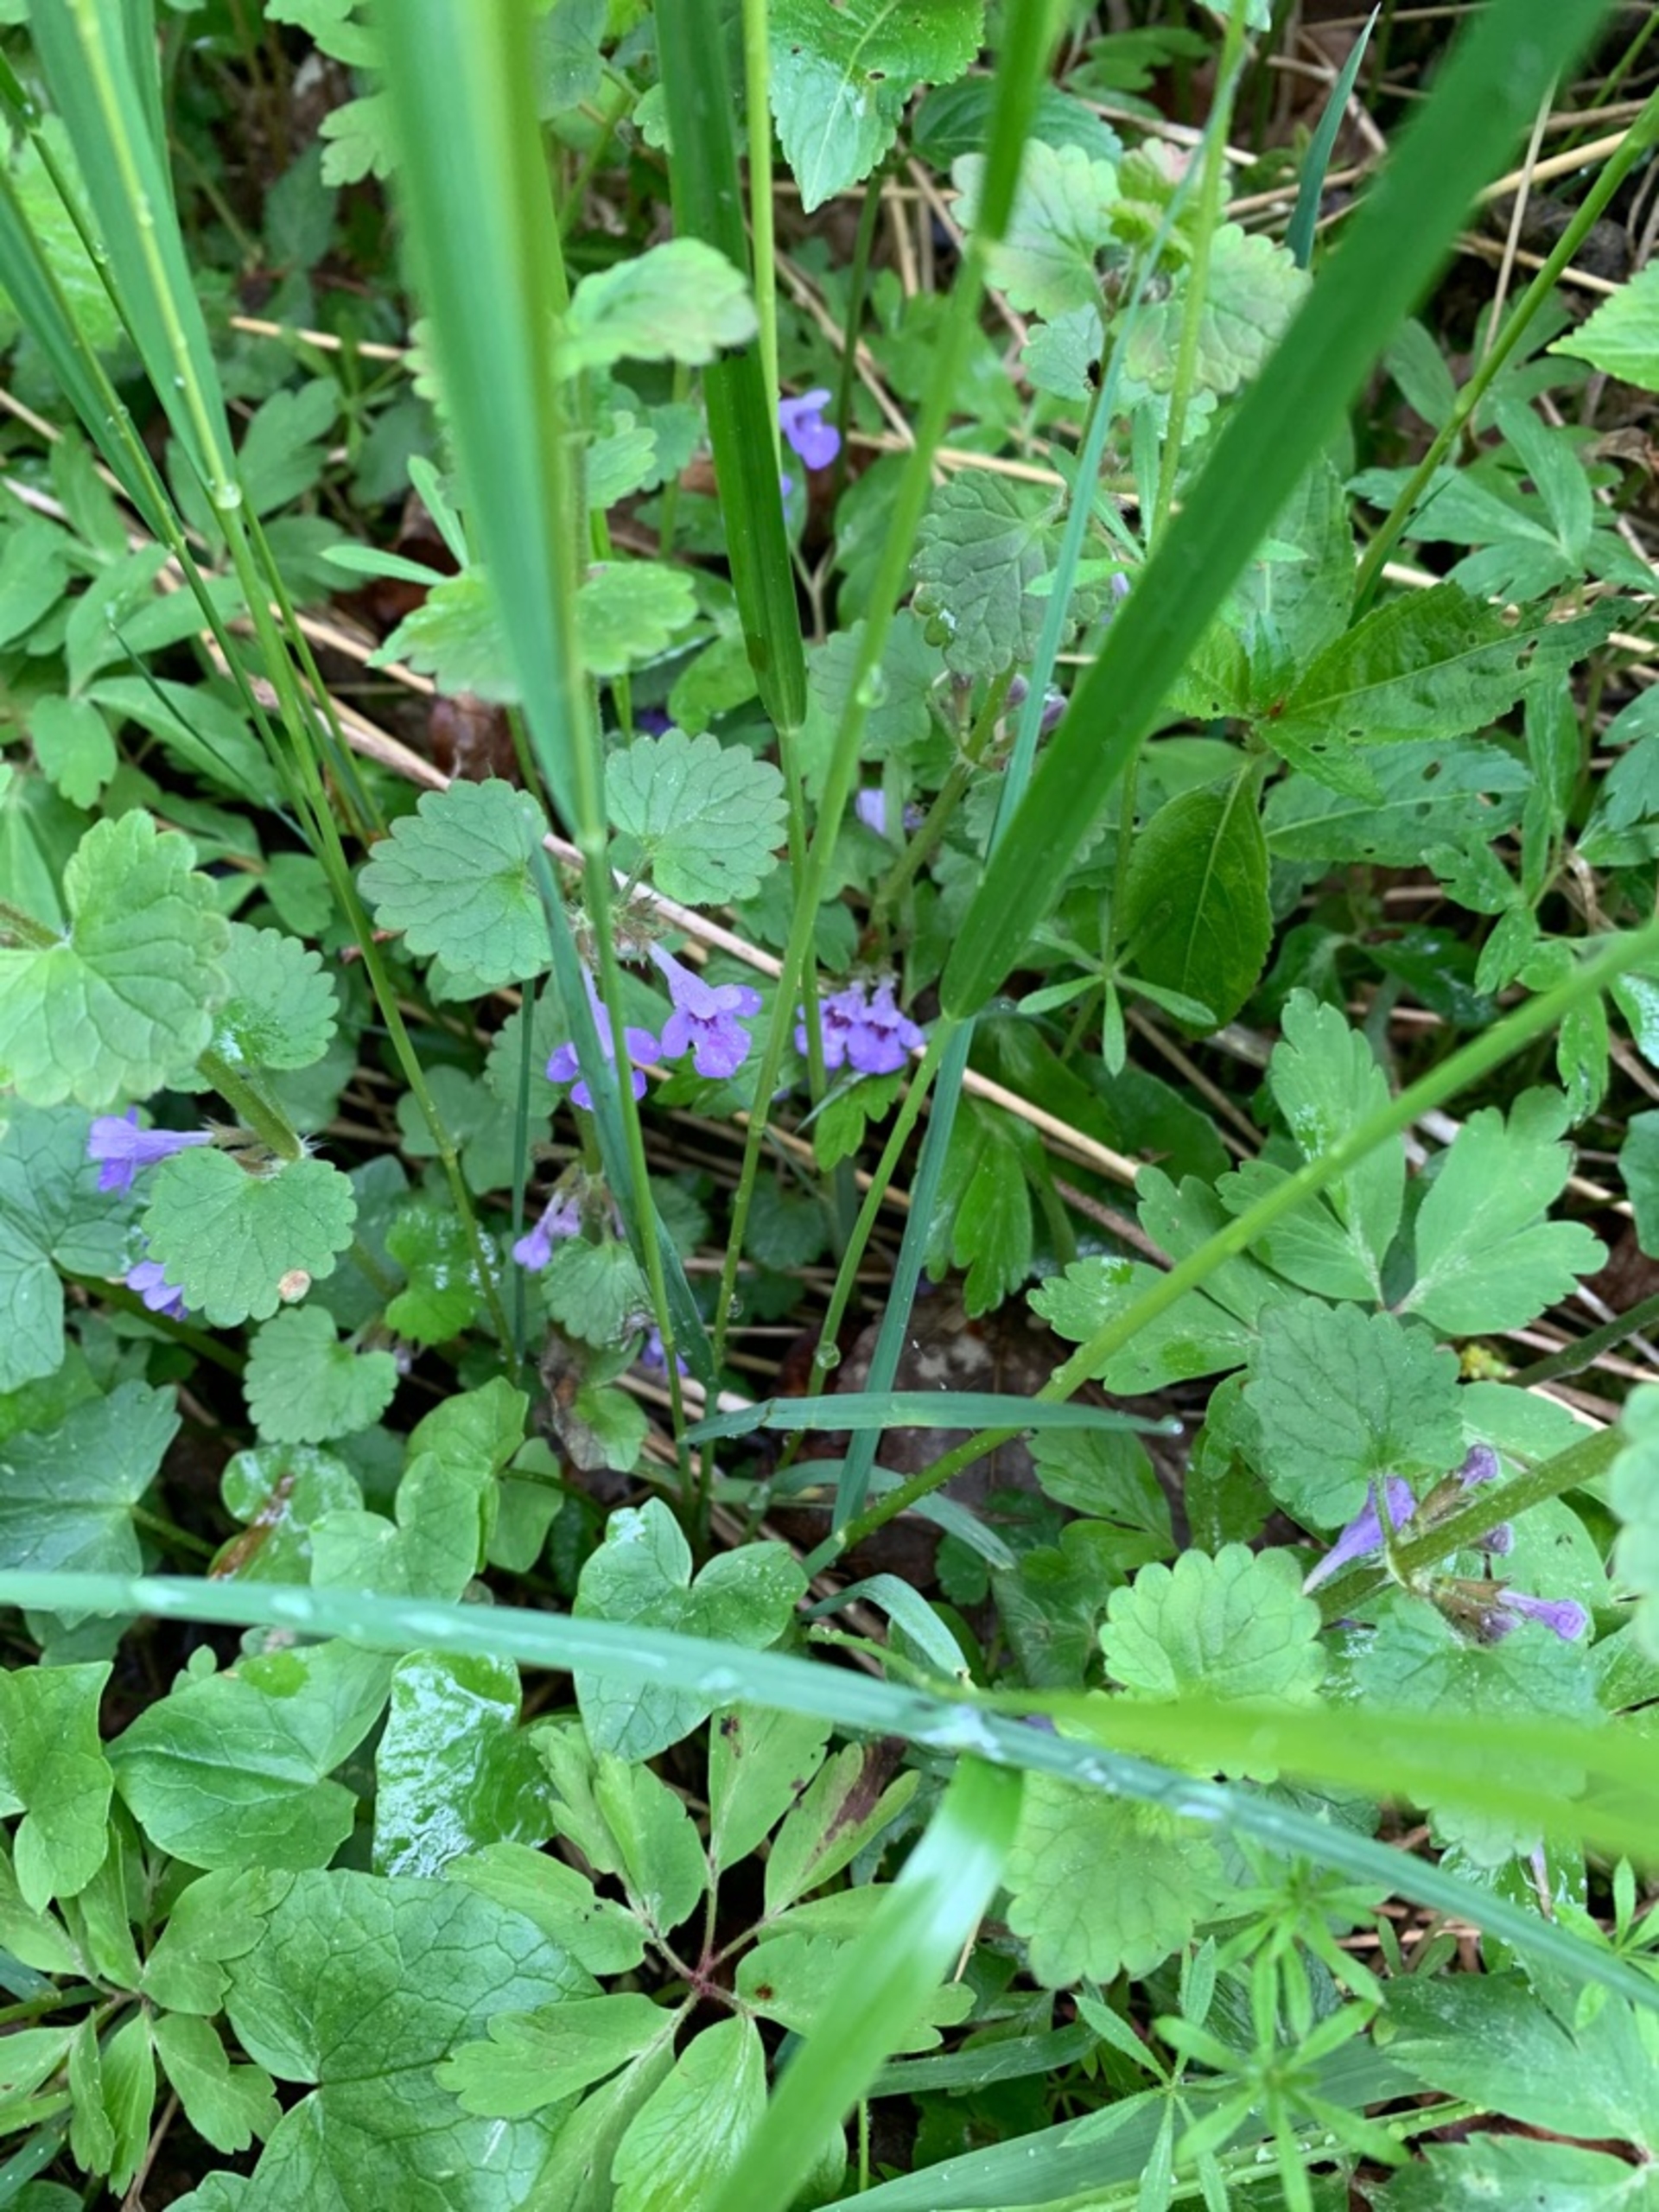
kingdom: Plantae
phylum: Tracheophyta
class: Magnoliopsida
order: Lamiales
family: Lamiaceae
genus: Glechoma
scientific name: Glechoma hederacea
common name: Korsknap
